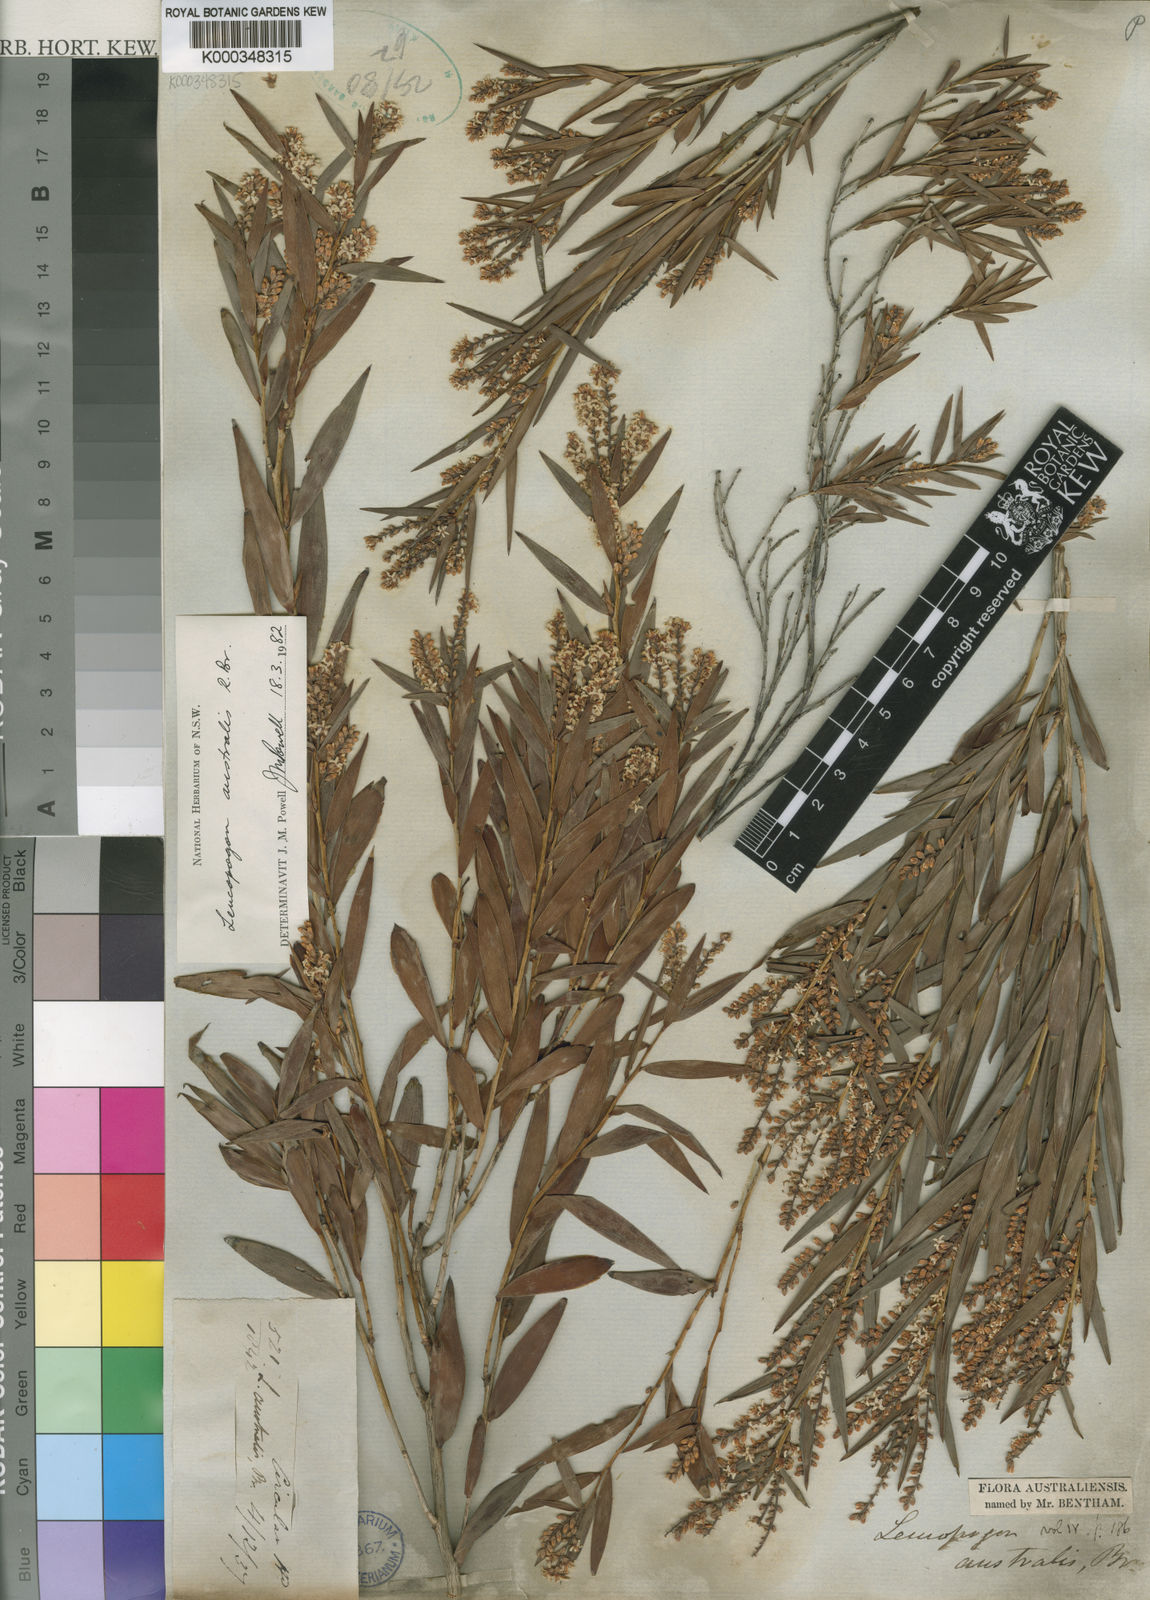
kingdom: Plantae
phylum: Tracheophyta
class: Magnoliopsida
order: Ericales
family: Ericaceae
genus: Leucopogon
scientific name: Leucopogon australis
